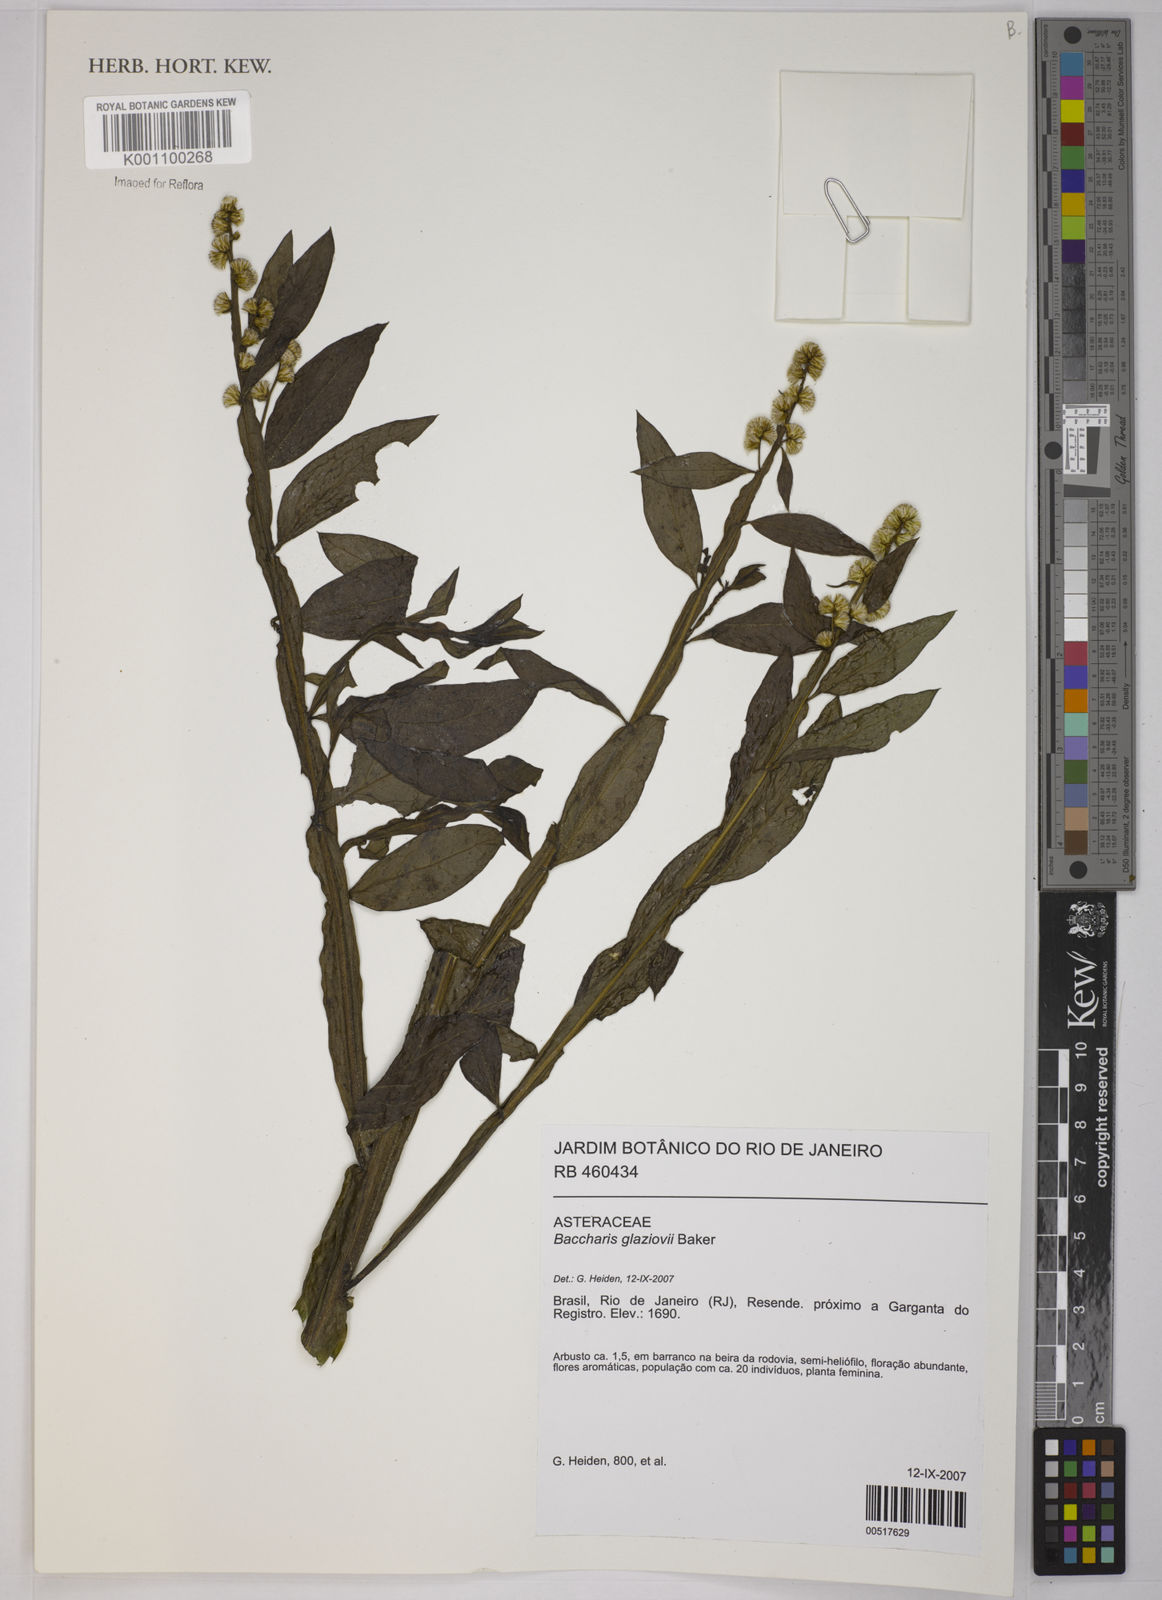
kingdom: Plantae
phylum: Tracheophyta
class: Magnoliopsida
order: Asterales
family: Asteraceae
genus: Baccharis
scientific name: Baccharis glaziovii
